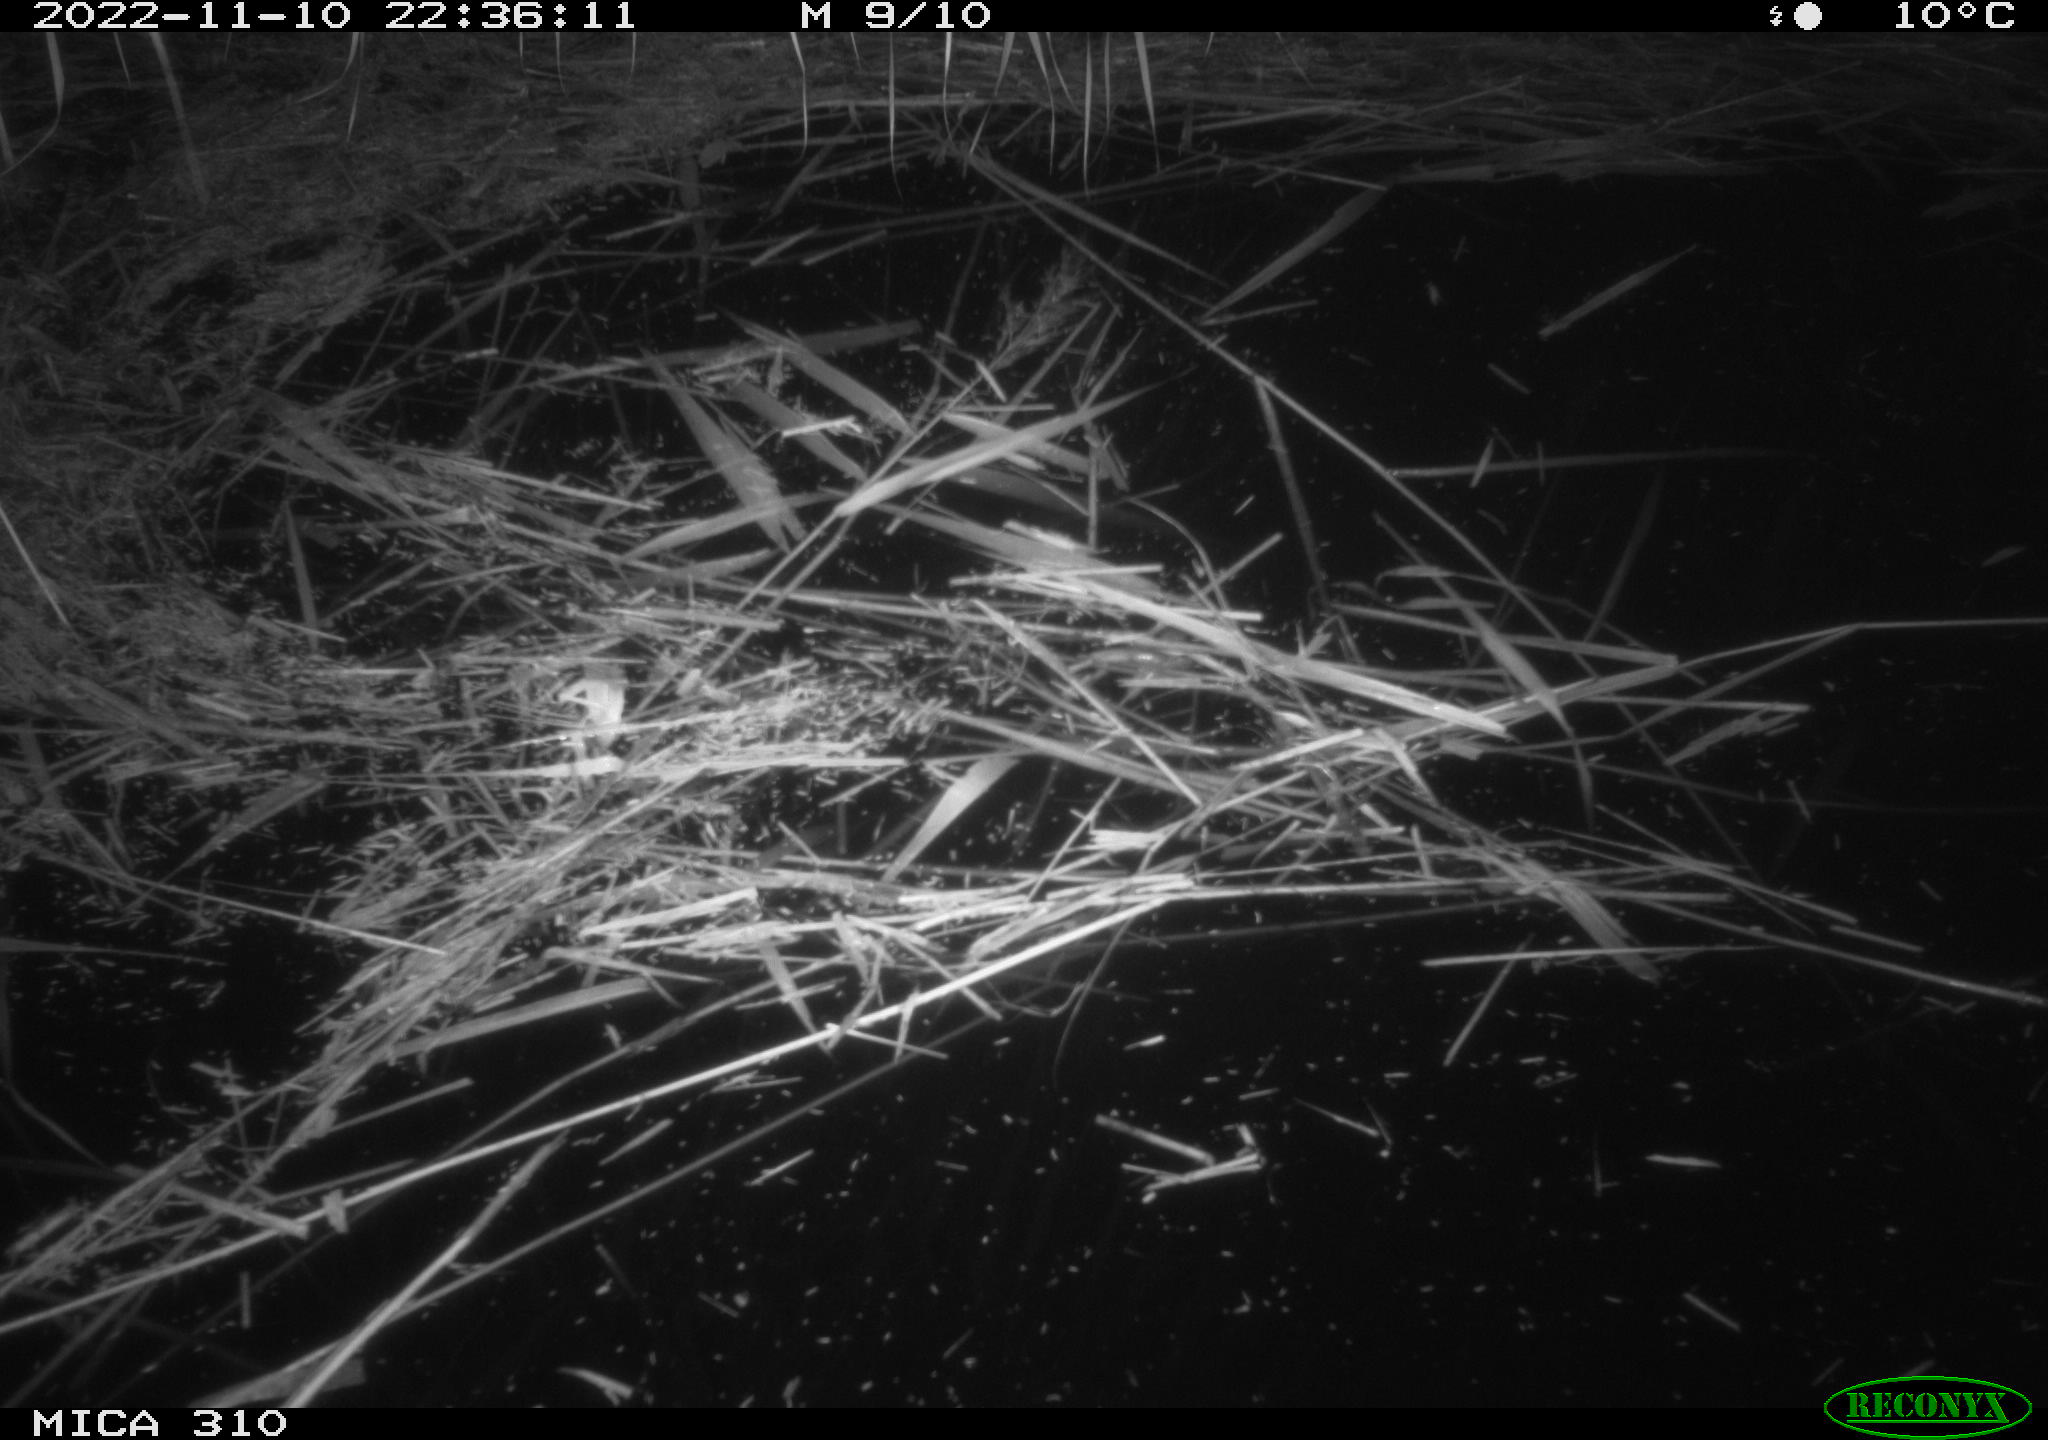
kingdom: Animalia
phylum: Chordata
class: Mammalia
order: Rodentia
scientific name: Rodentia
